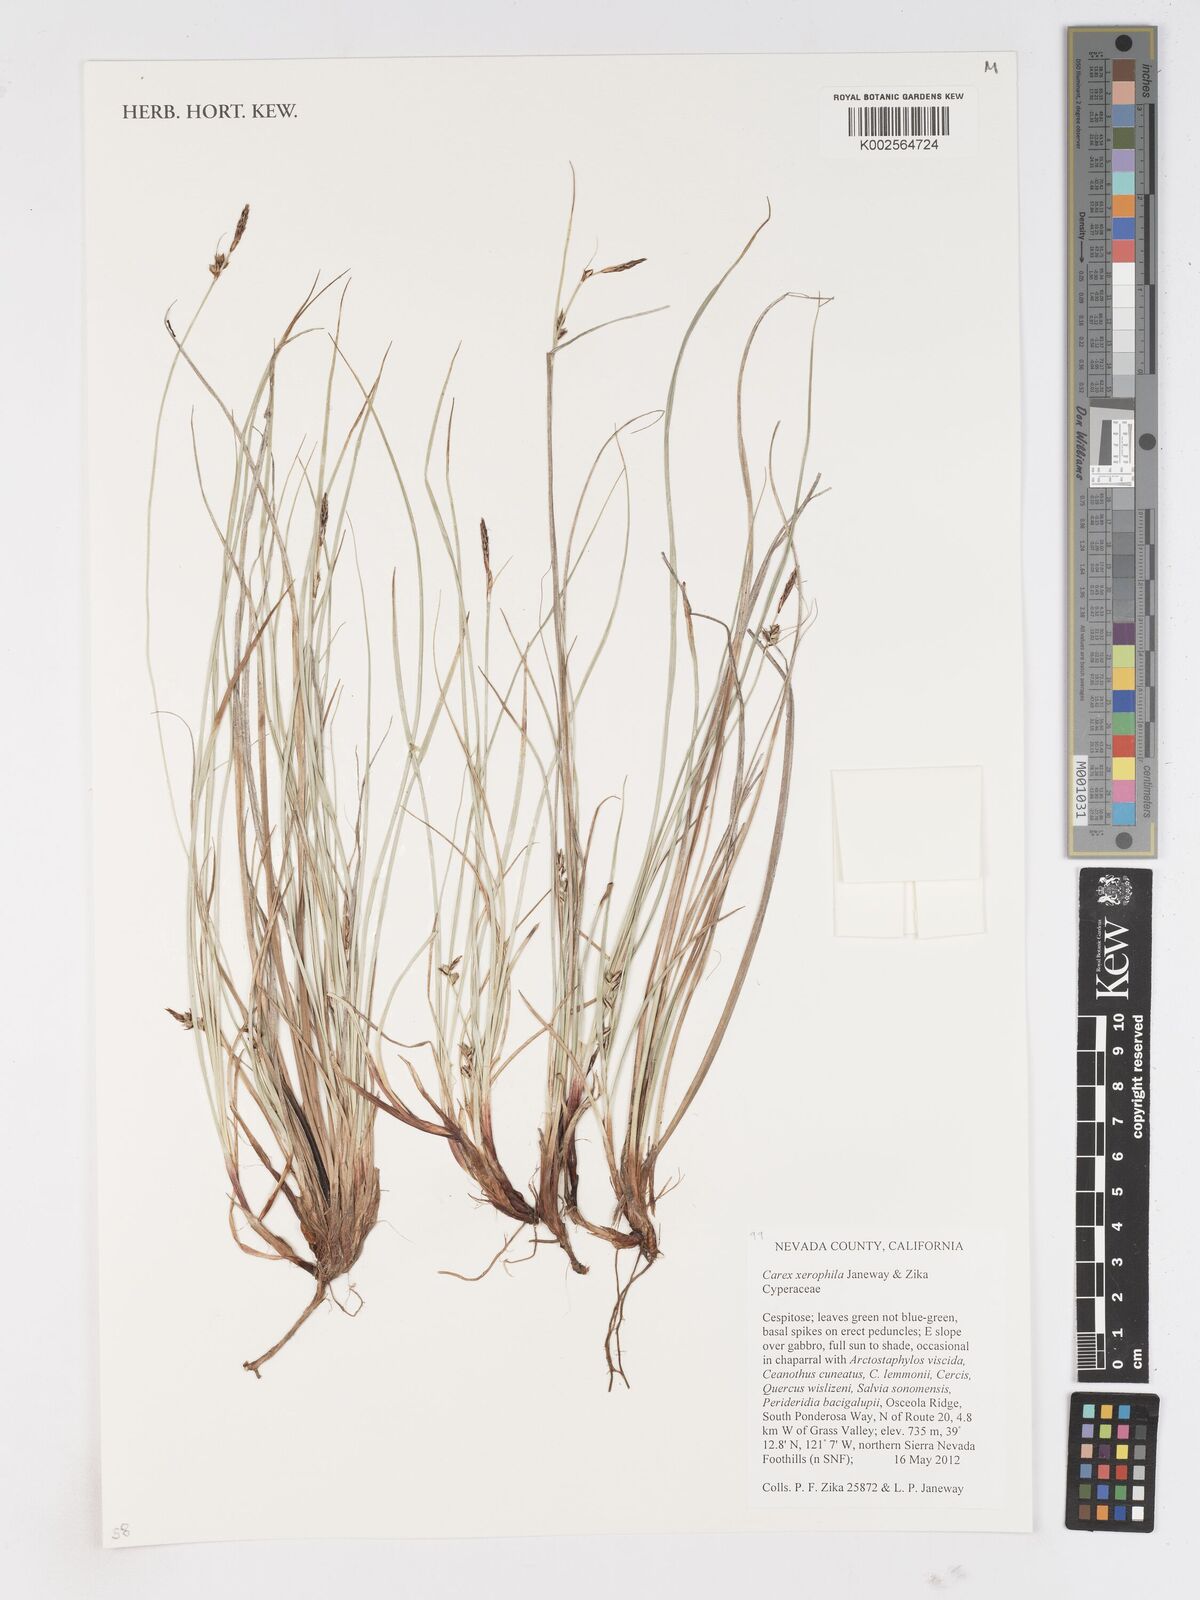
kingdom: Plantae
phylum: Tracheophyta
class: Liliopsida
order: Poales
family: Cyperaceae
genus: Carex
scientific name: Carex xerophila
